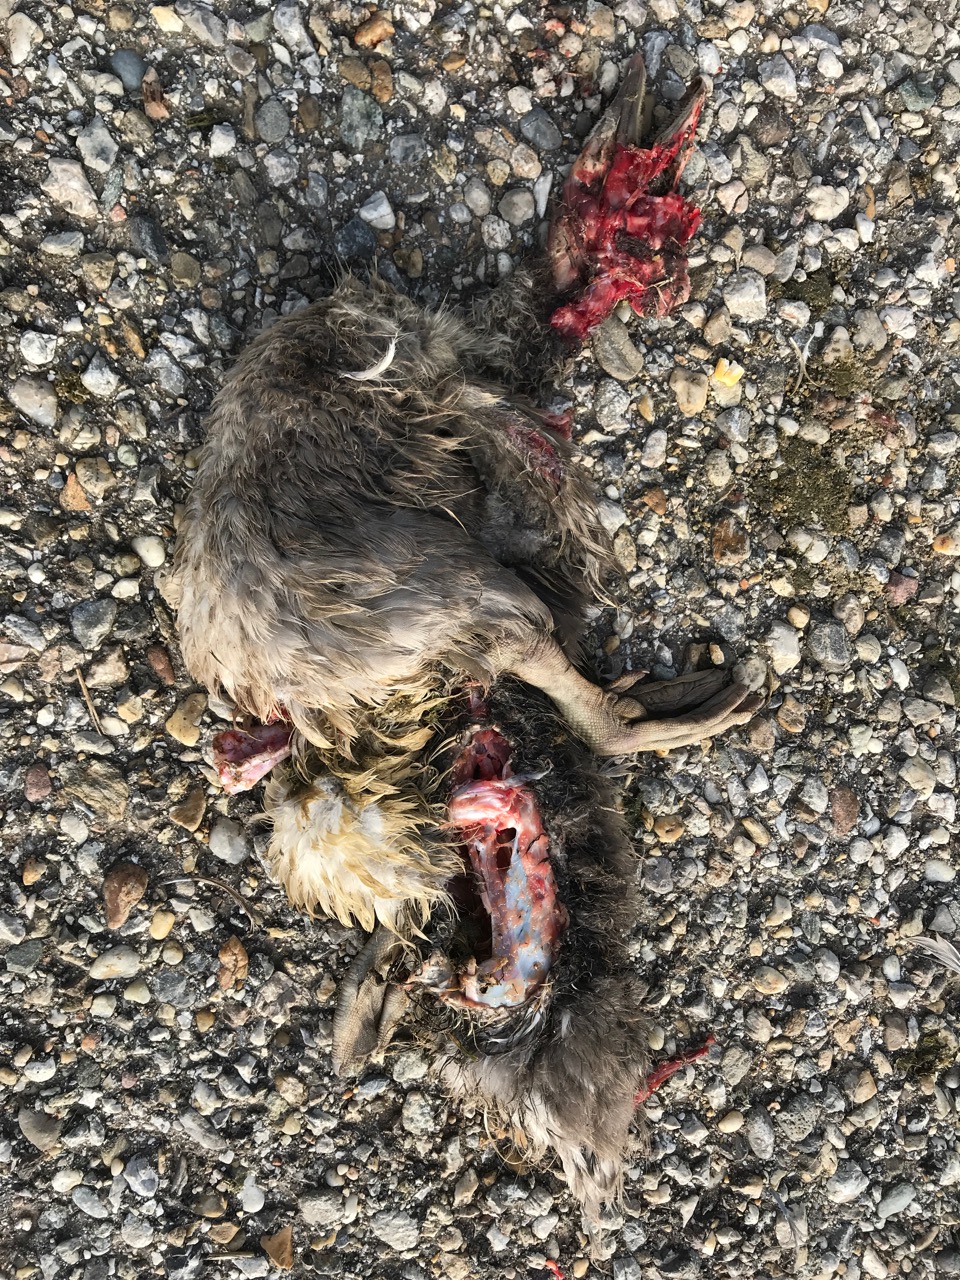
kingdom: Animalia
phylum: Chordata
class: Aves
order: Anseriformes
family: Anatidae
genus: Anser
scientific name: Anser anser
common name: Greylag goose
